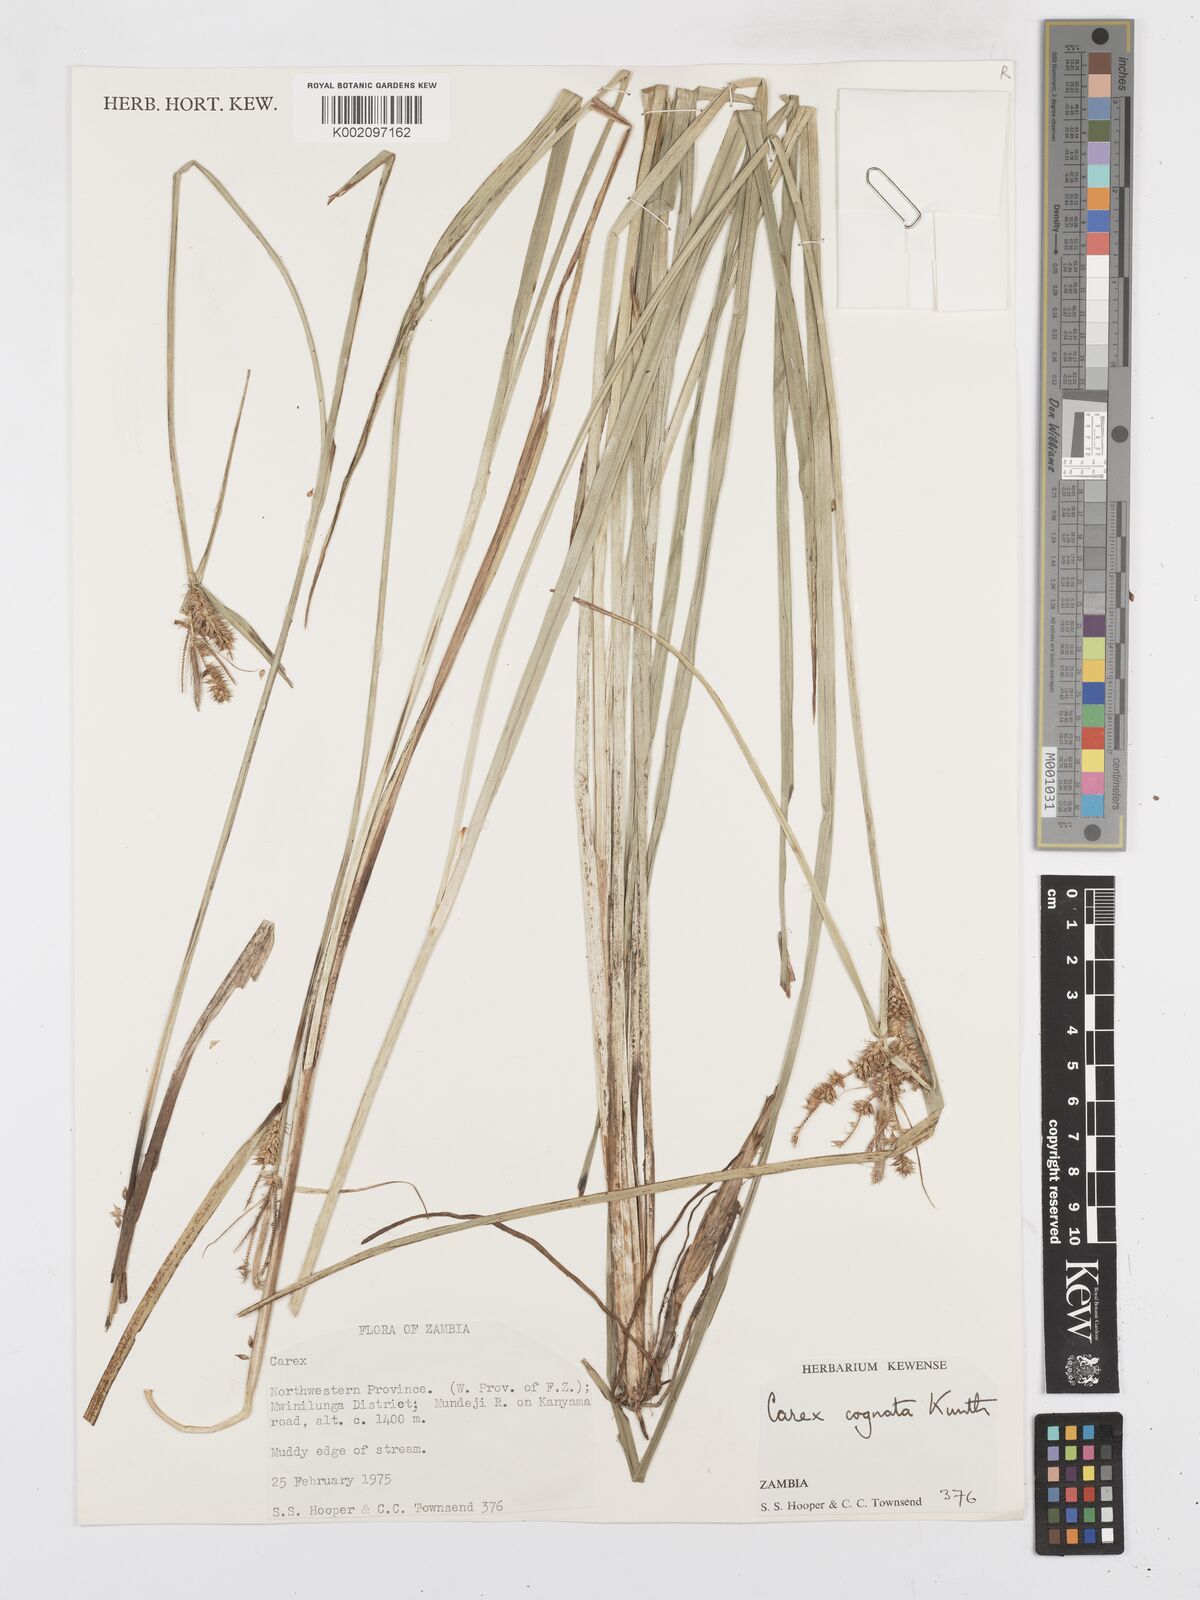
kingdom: Plantae
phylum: Tracheophyta
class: Liliopsida
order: Poales
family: Cyperaceae
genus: Carex
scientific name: Carex congolensis
